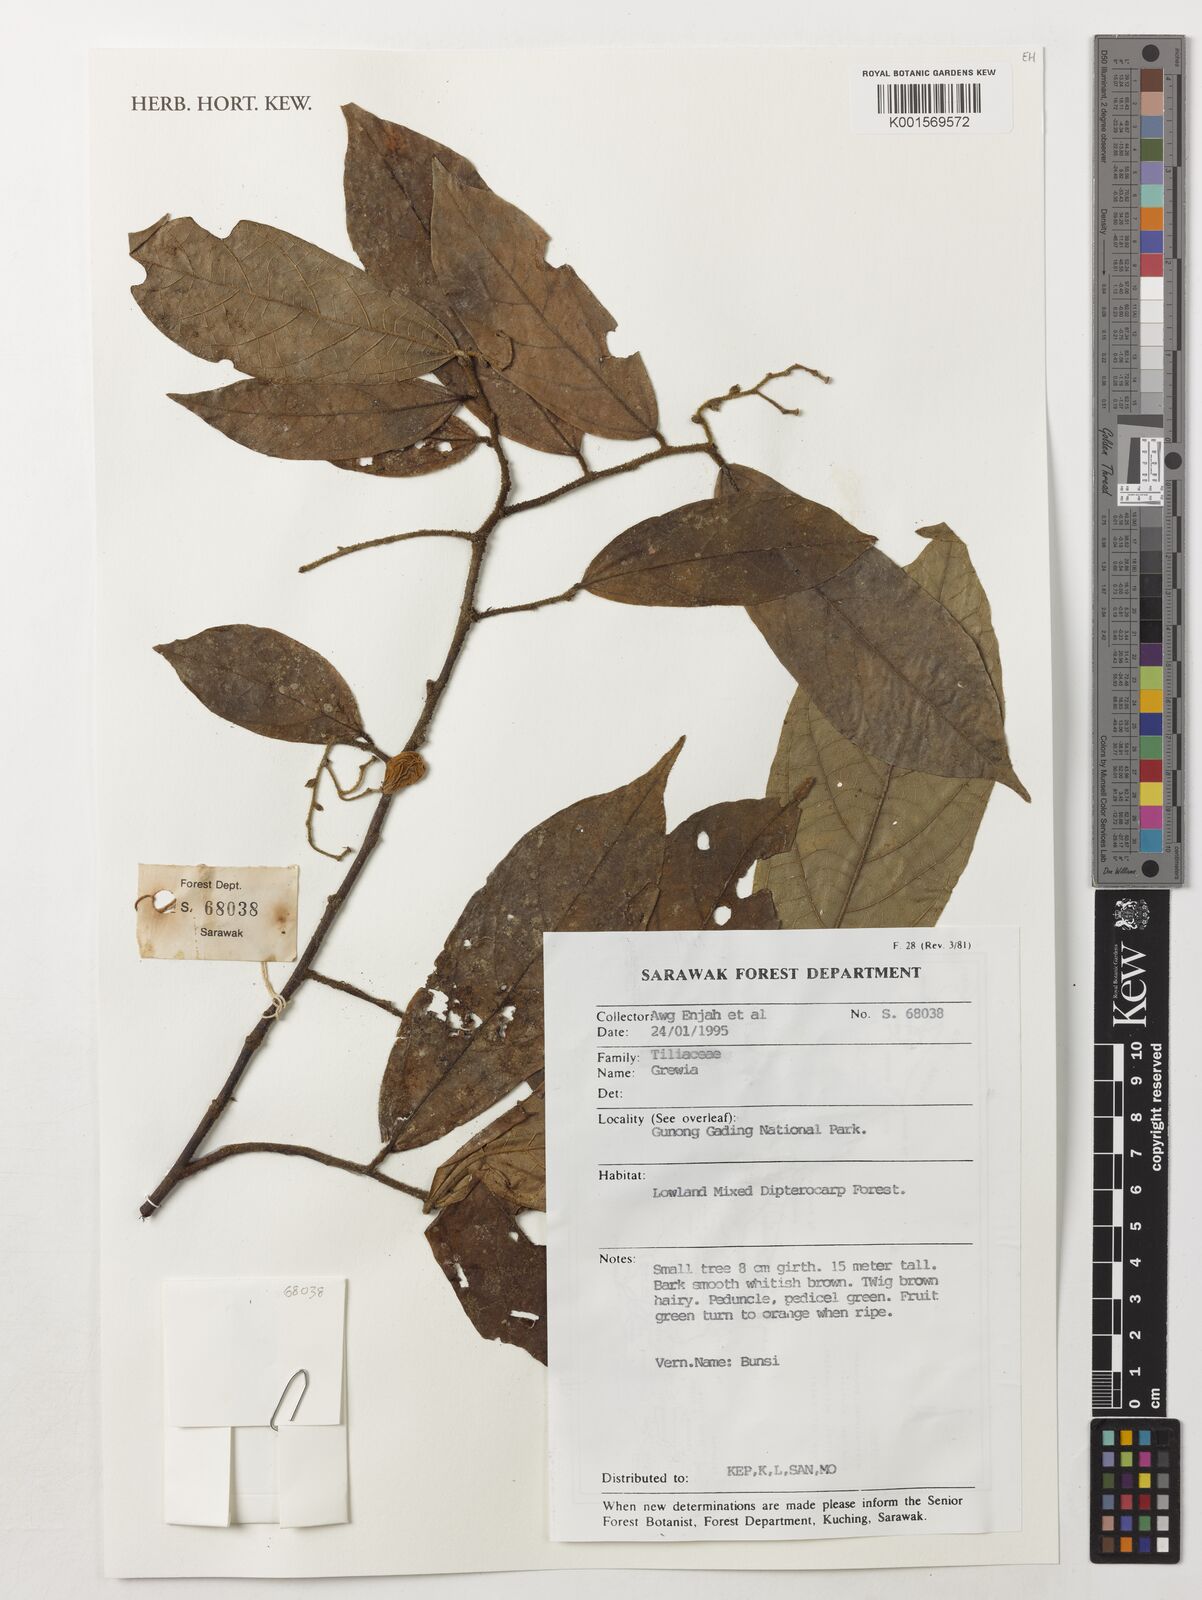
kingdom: Plantae
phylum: Tracheophyta
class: Magnoliopsida
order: Malvales
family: Malvaceae
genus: Grewia
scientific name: Grewia
